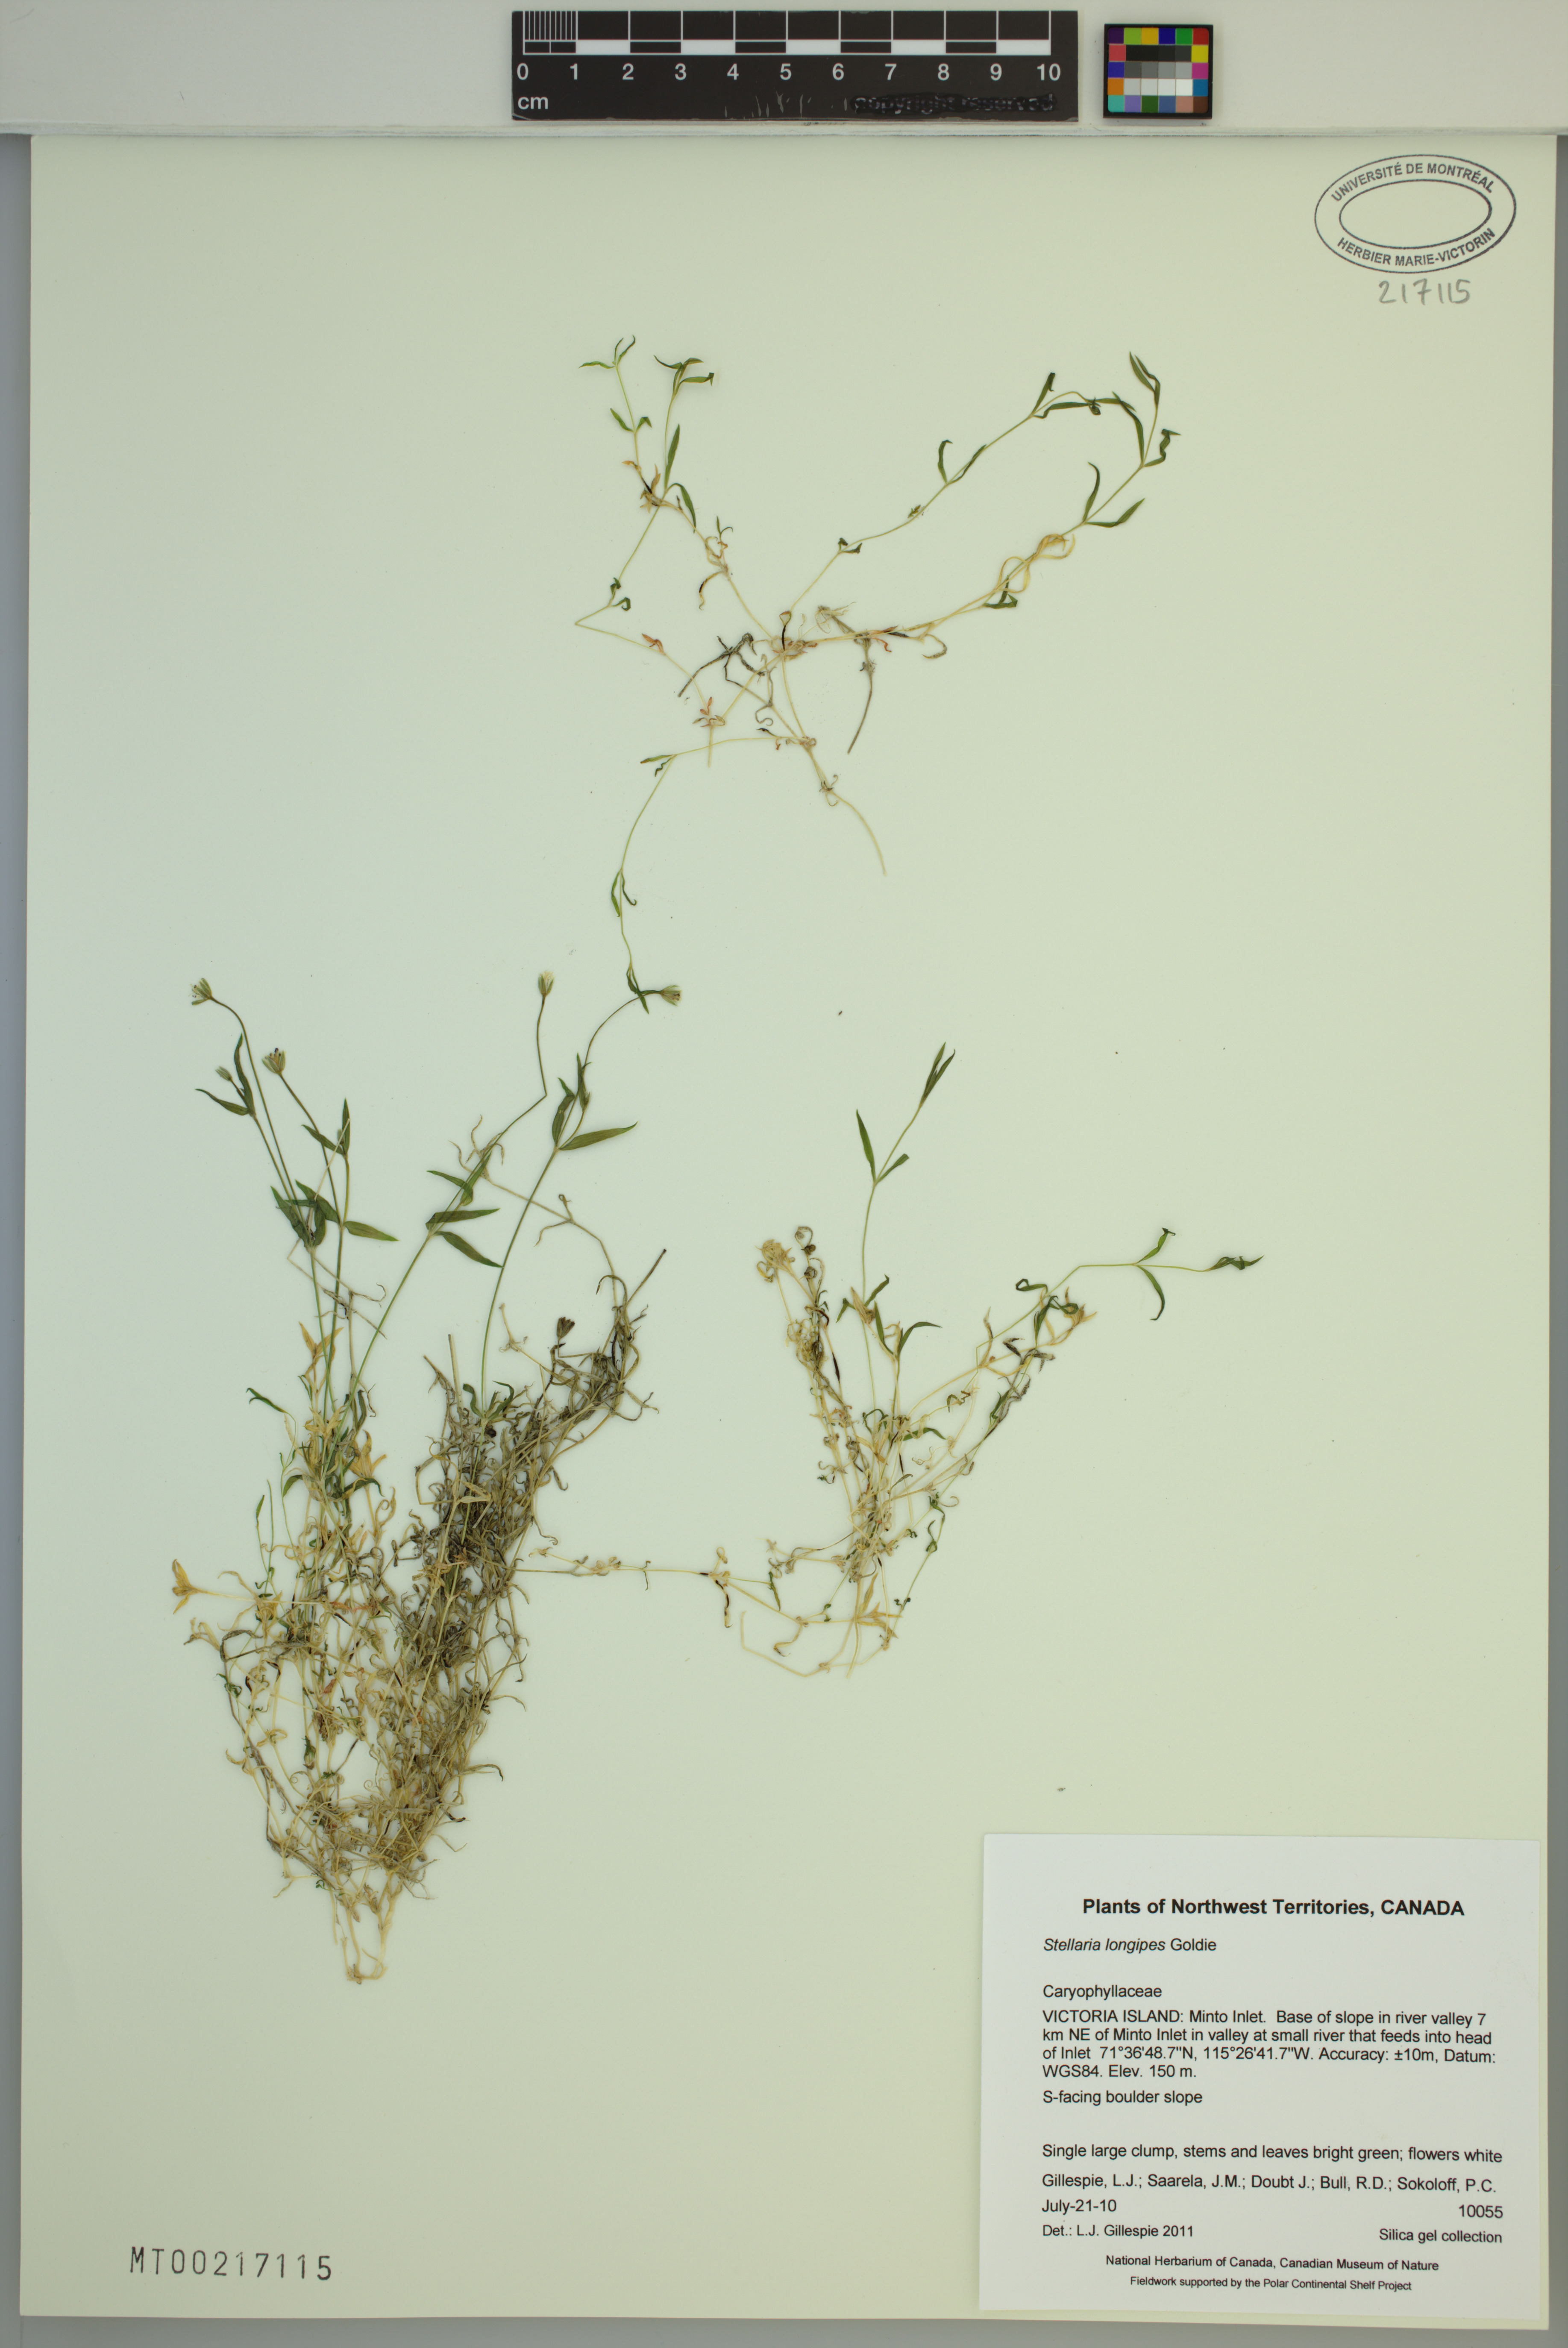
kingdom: Plantae
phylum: Tracheophyta
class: Magnoliopsida
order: Caryophyllales
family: Caryophyllaceae
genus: Stellaria
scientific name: Stellaria longipes
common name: Goldie's starwort
